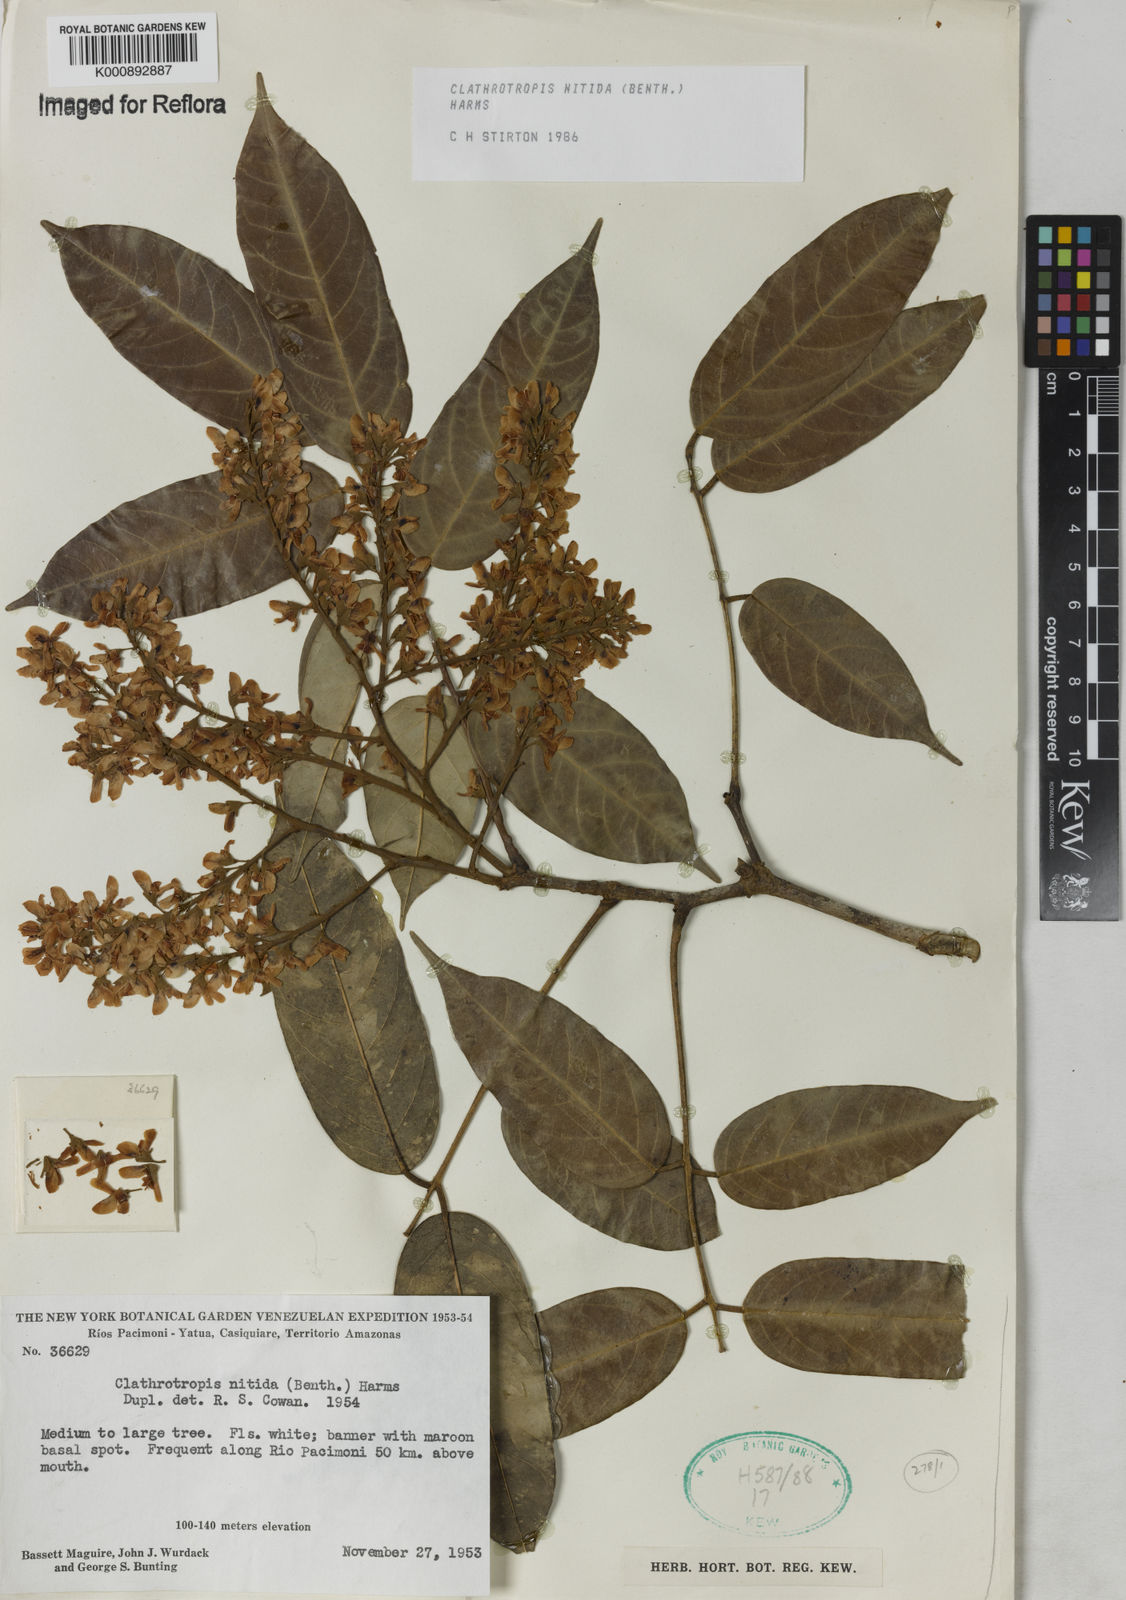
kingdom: Plantae
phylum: Tracheophyta
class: Magnoliopsida
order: Fabales
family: Fabaceae
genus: Clathrotropis
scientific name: Clathrotropis nitida
